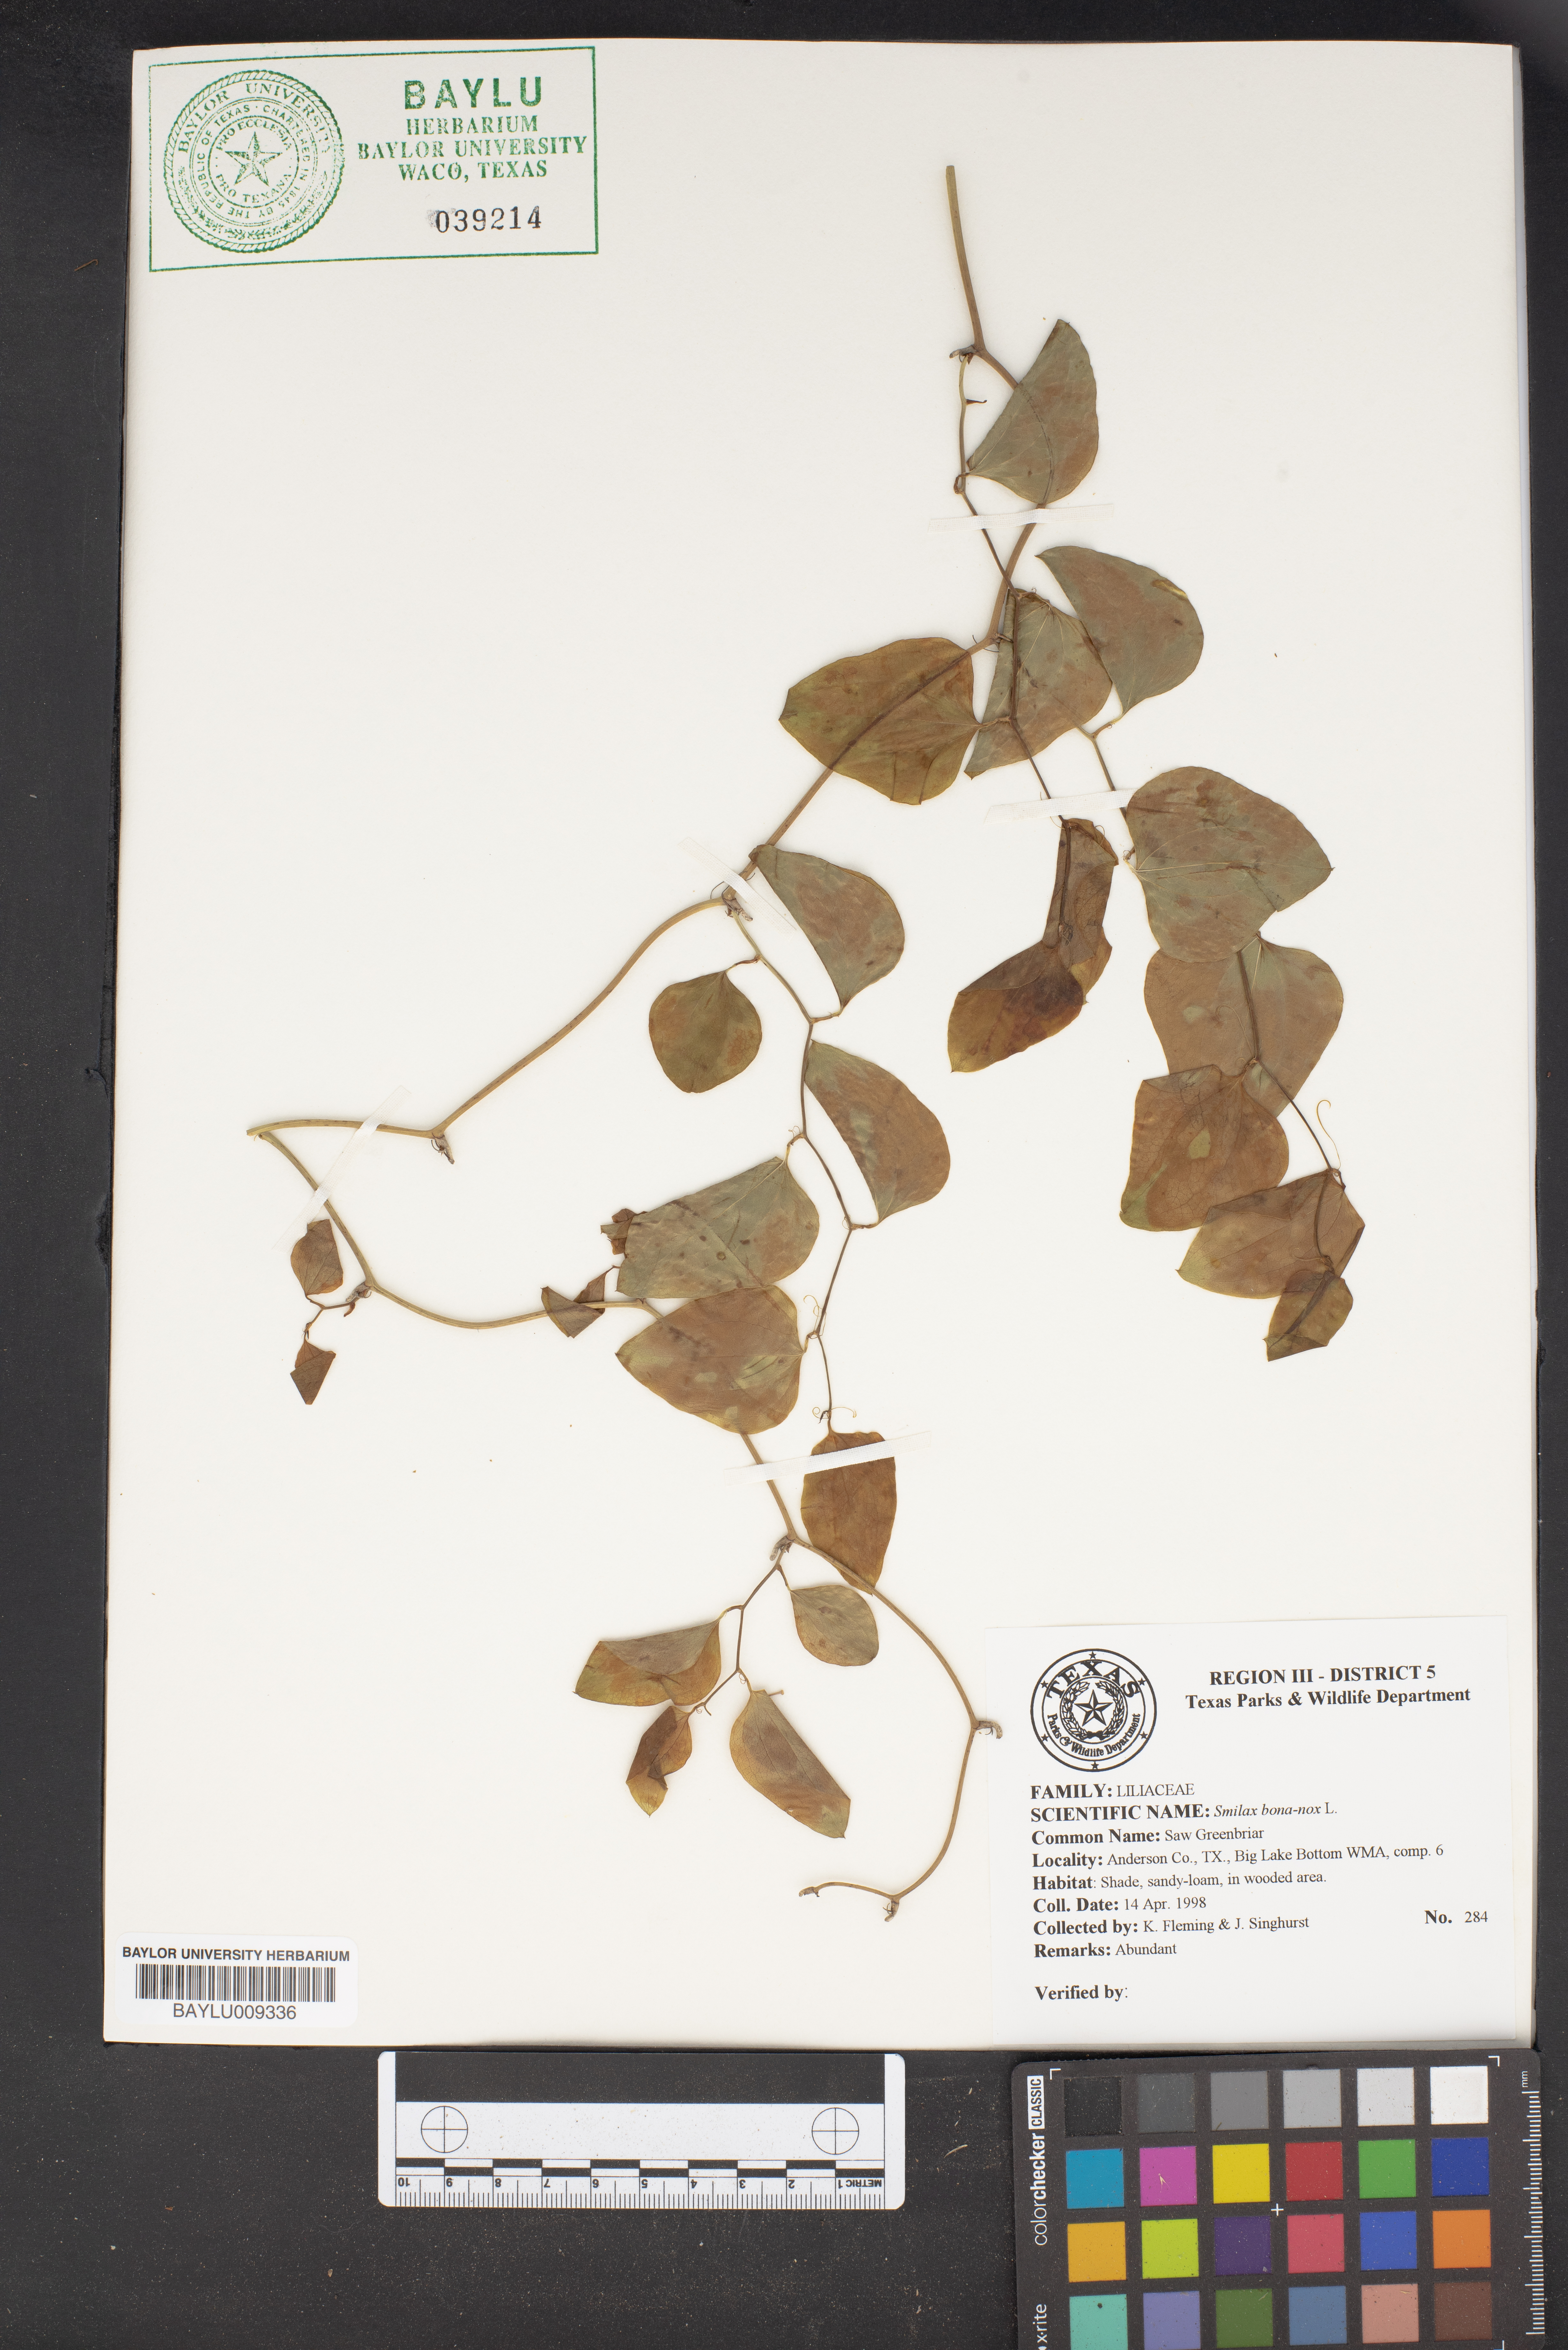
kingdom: Plantae
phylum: Tracheophyta
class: Liliopsida
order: Liliales
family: Smilacaceae
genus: Smilax
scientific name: Smilax bona-nox
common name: Catbrier
